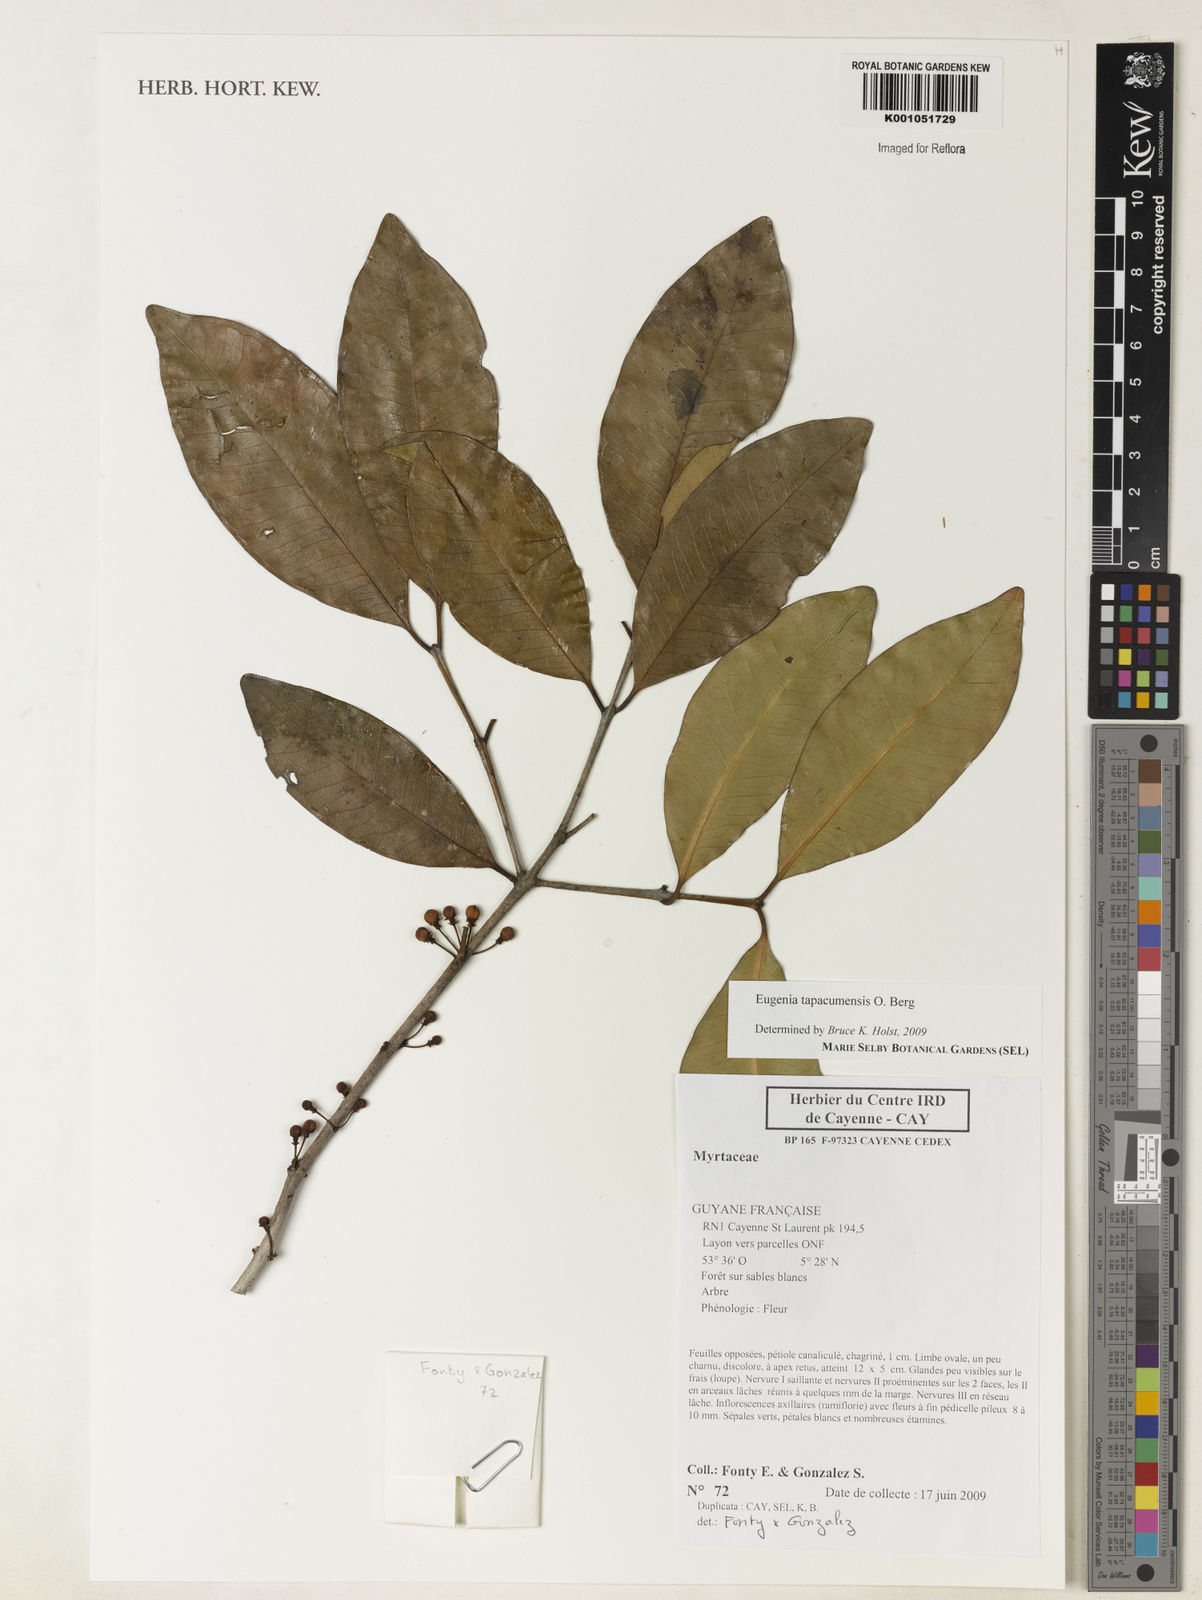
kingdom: Plantae
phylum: Tracheophyta
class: Magnoliopsida
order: Myrtales
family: Myrtaceae
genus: Eugenia
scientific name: Eugenia tapacumensis
